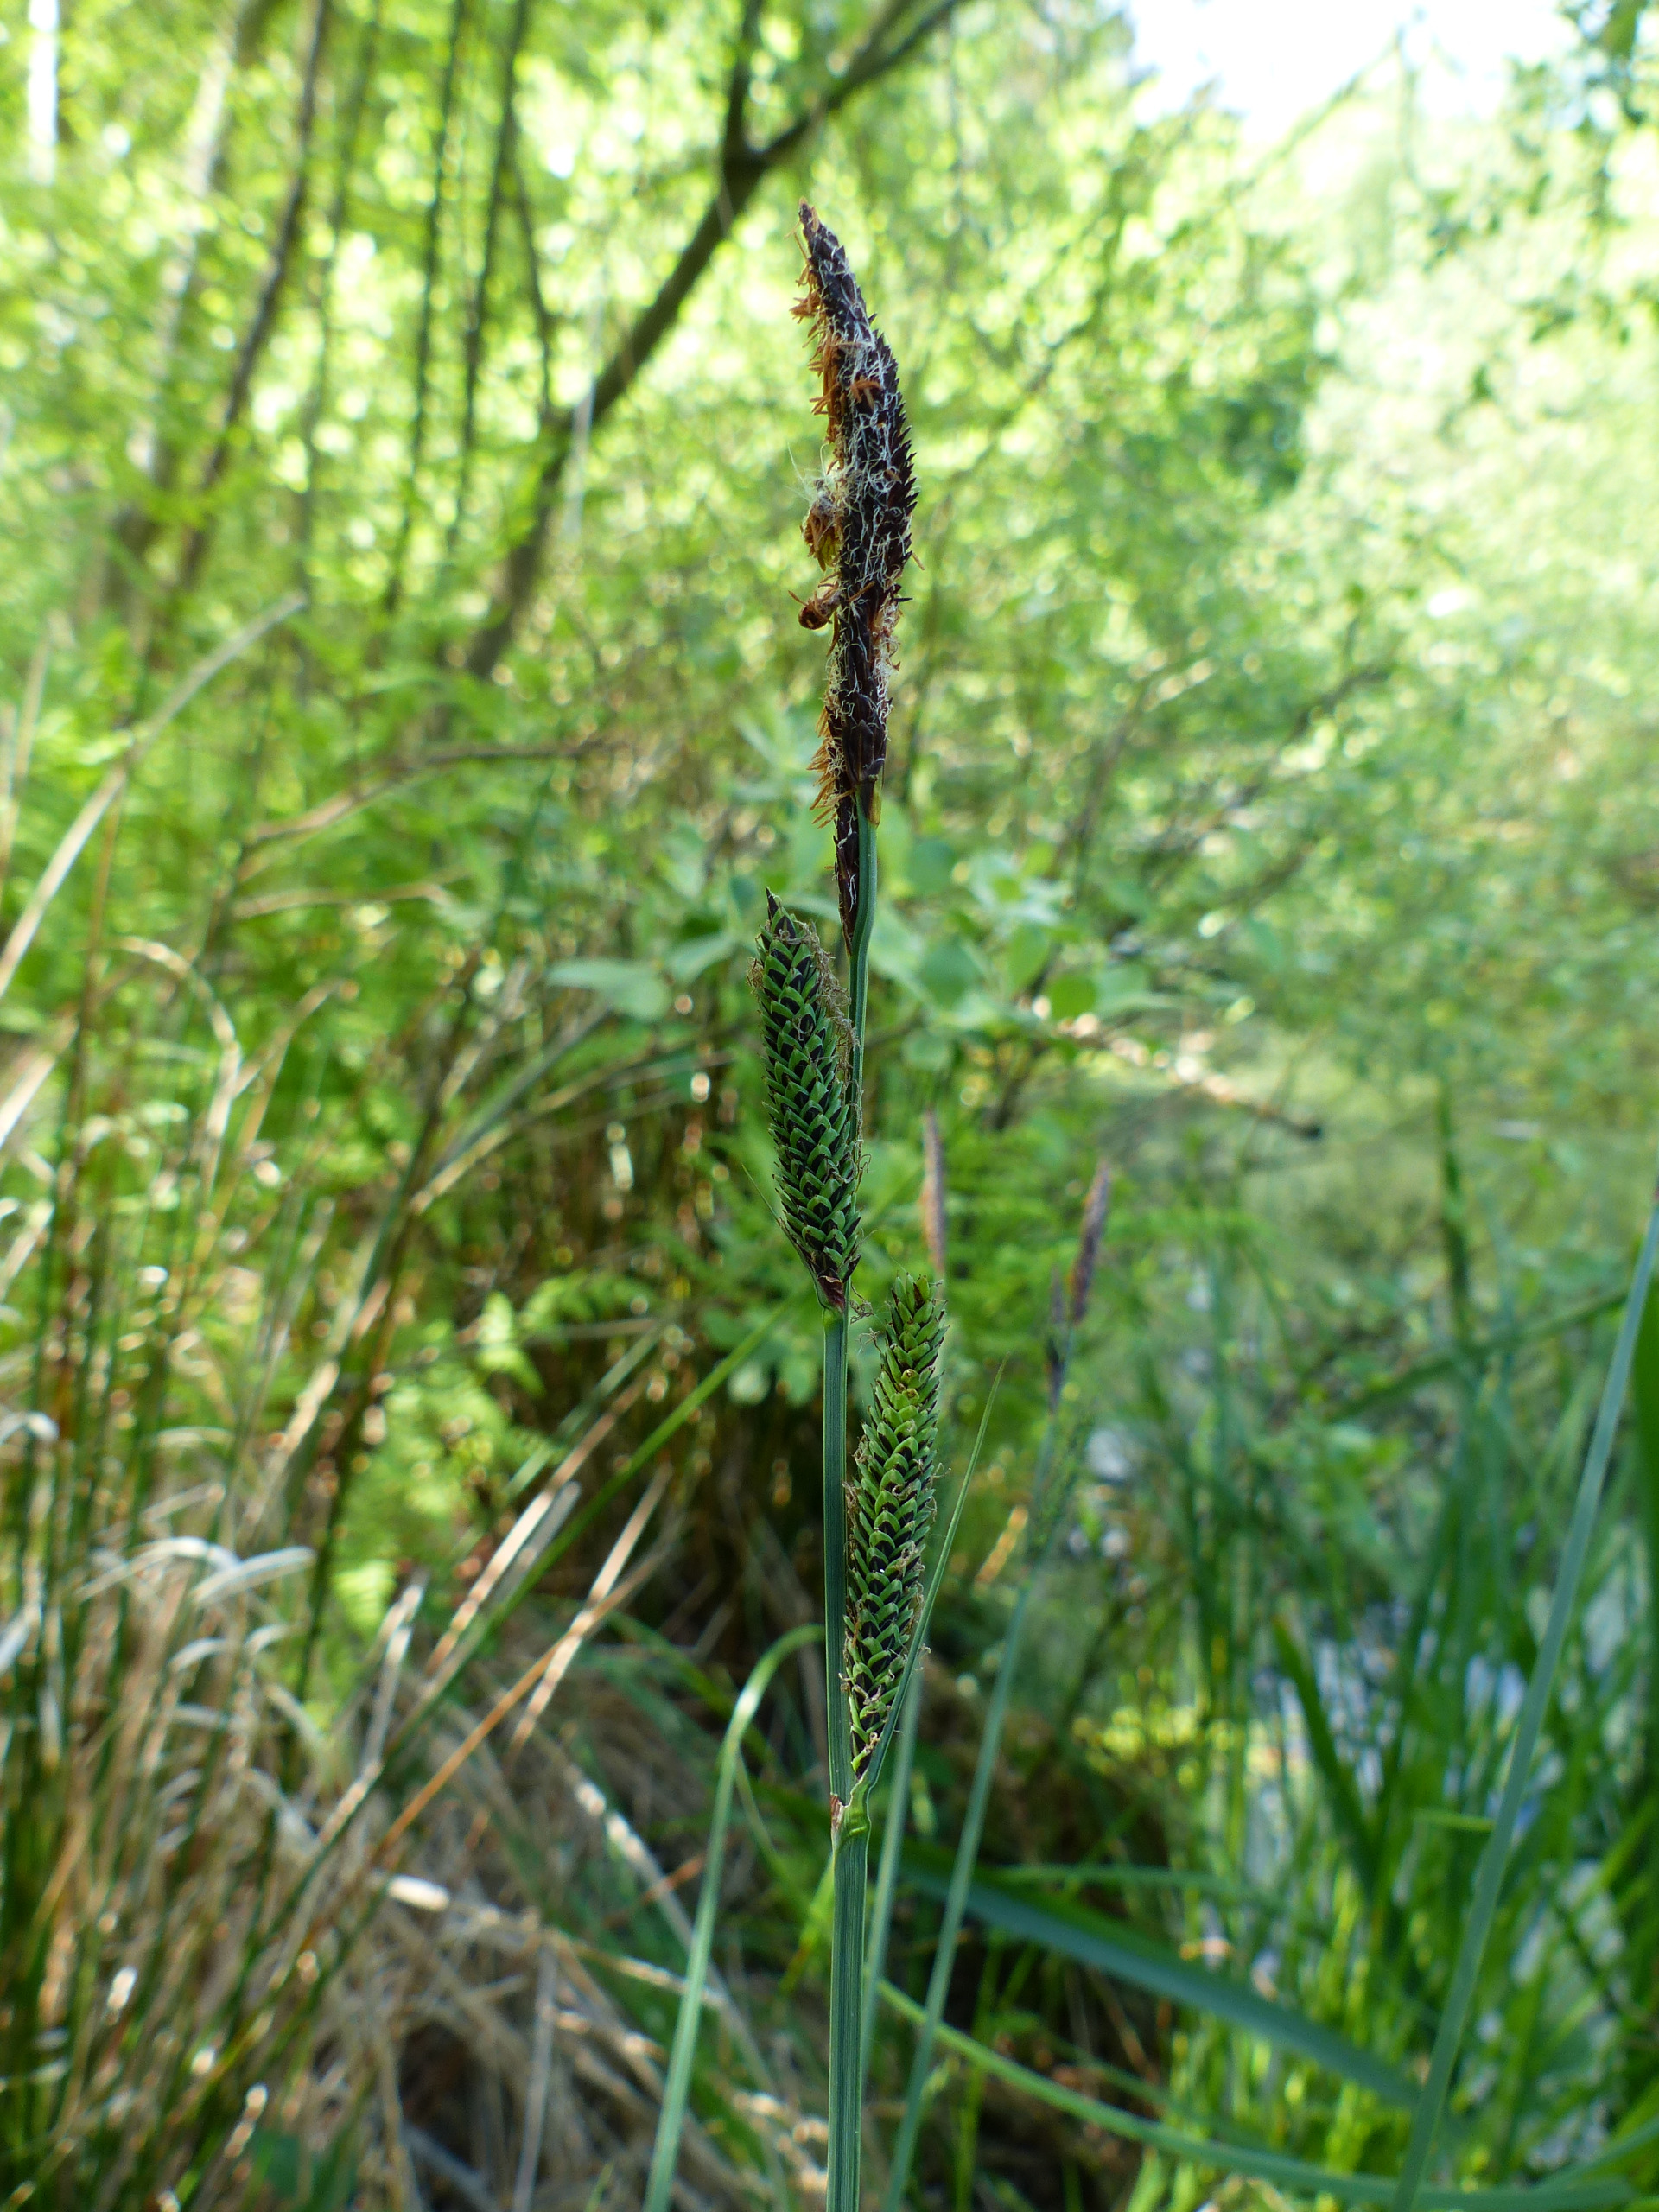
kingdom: Plantae
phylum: Tracheophyta
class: Liliopsida
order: Poales
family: Cyperaceae
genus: Carex
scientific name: Carex elata
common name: Stiv star
